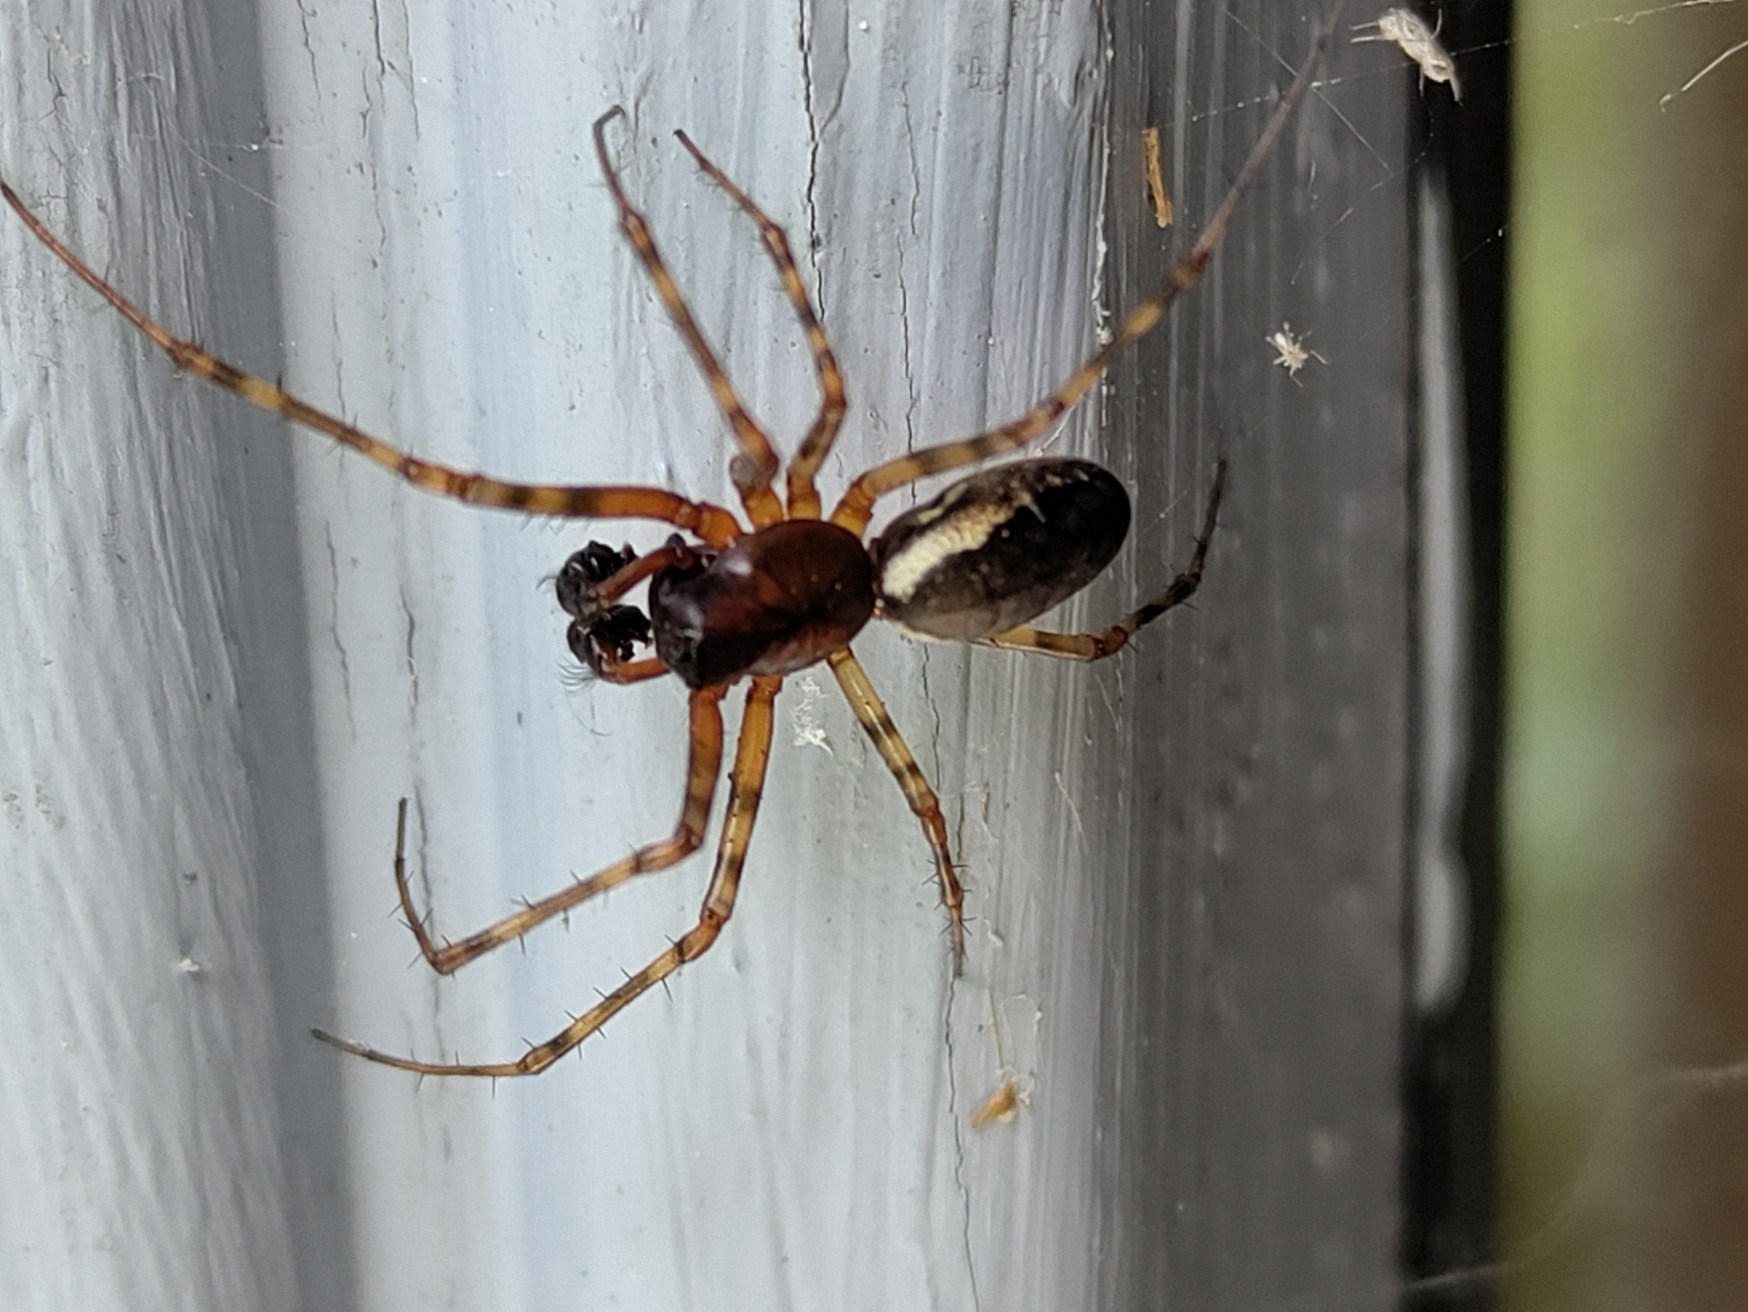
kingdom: Animalia
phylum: Arthropoda
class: Arachnida
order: Araneae
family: Linyphiidae
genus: Neriene
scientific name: Neriene montana
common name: Buskbaldakinspinder
